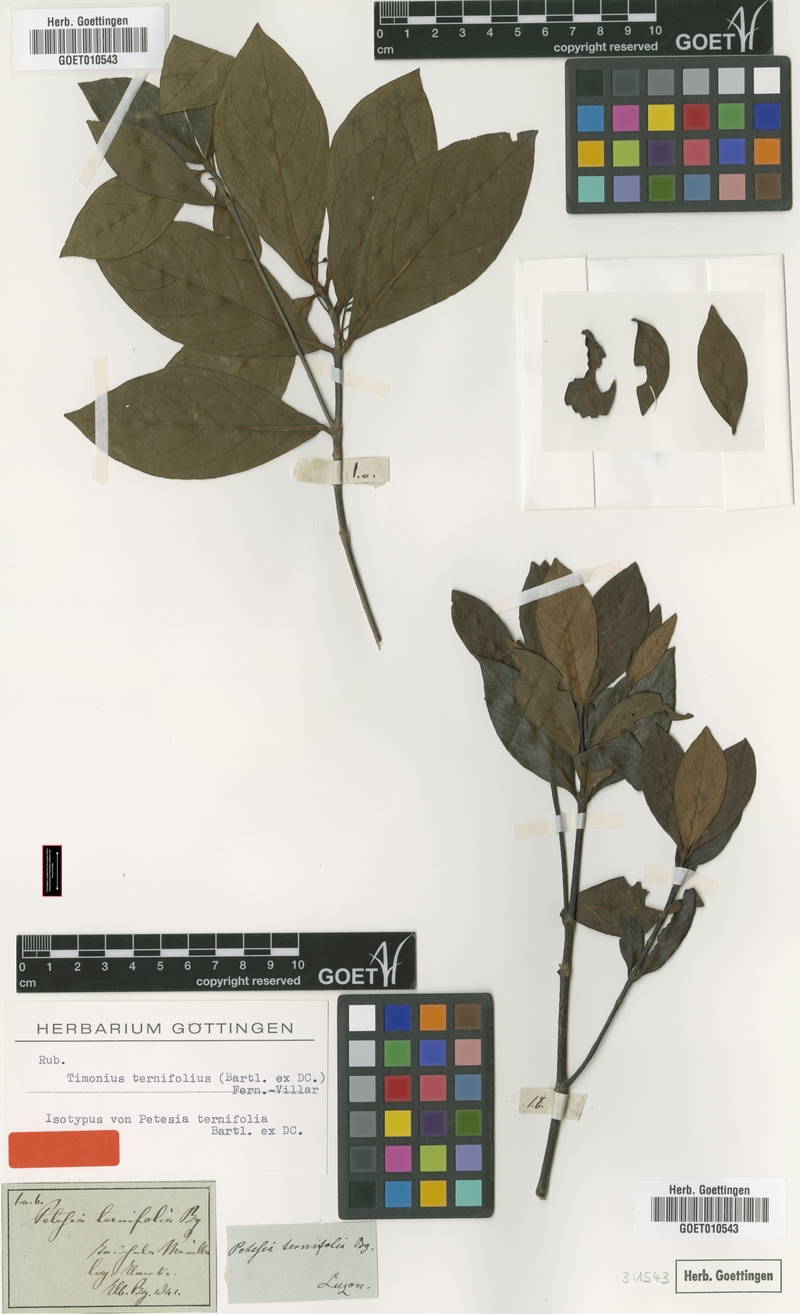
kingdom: Plantae
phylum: Tracheophyta
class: Magnoliopsida
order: Gentianales
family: Rubiaceae
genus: Timonius
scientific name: Timonius ternifolius
